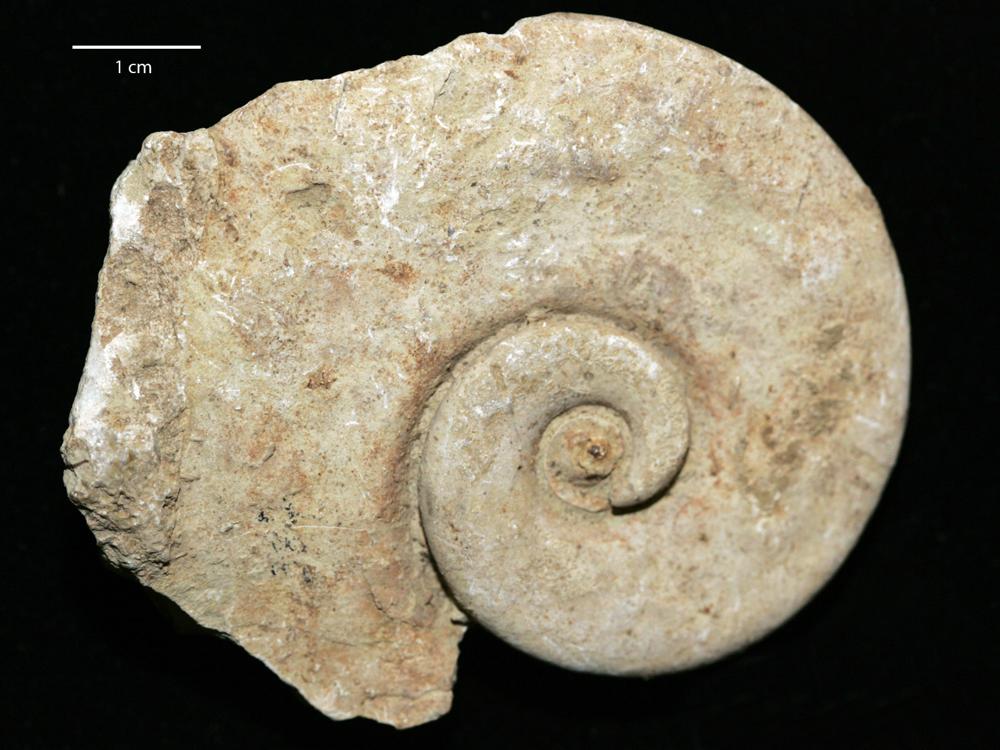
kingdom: Animalia
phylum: Mollusca
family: Macluritidae
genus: Maclurites
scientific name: Maclurites Maclurea neritoides
